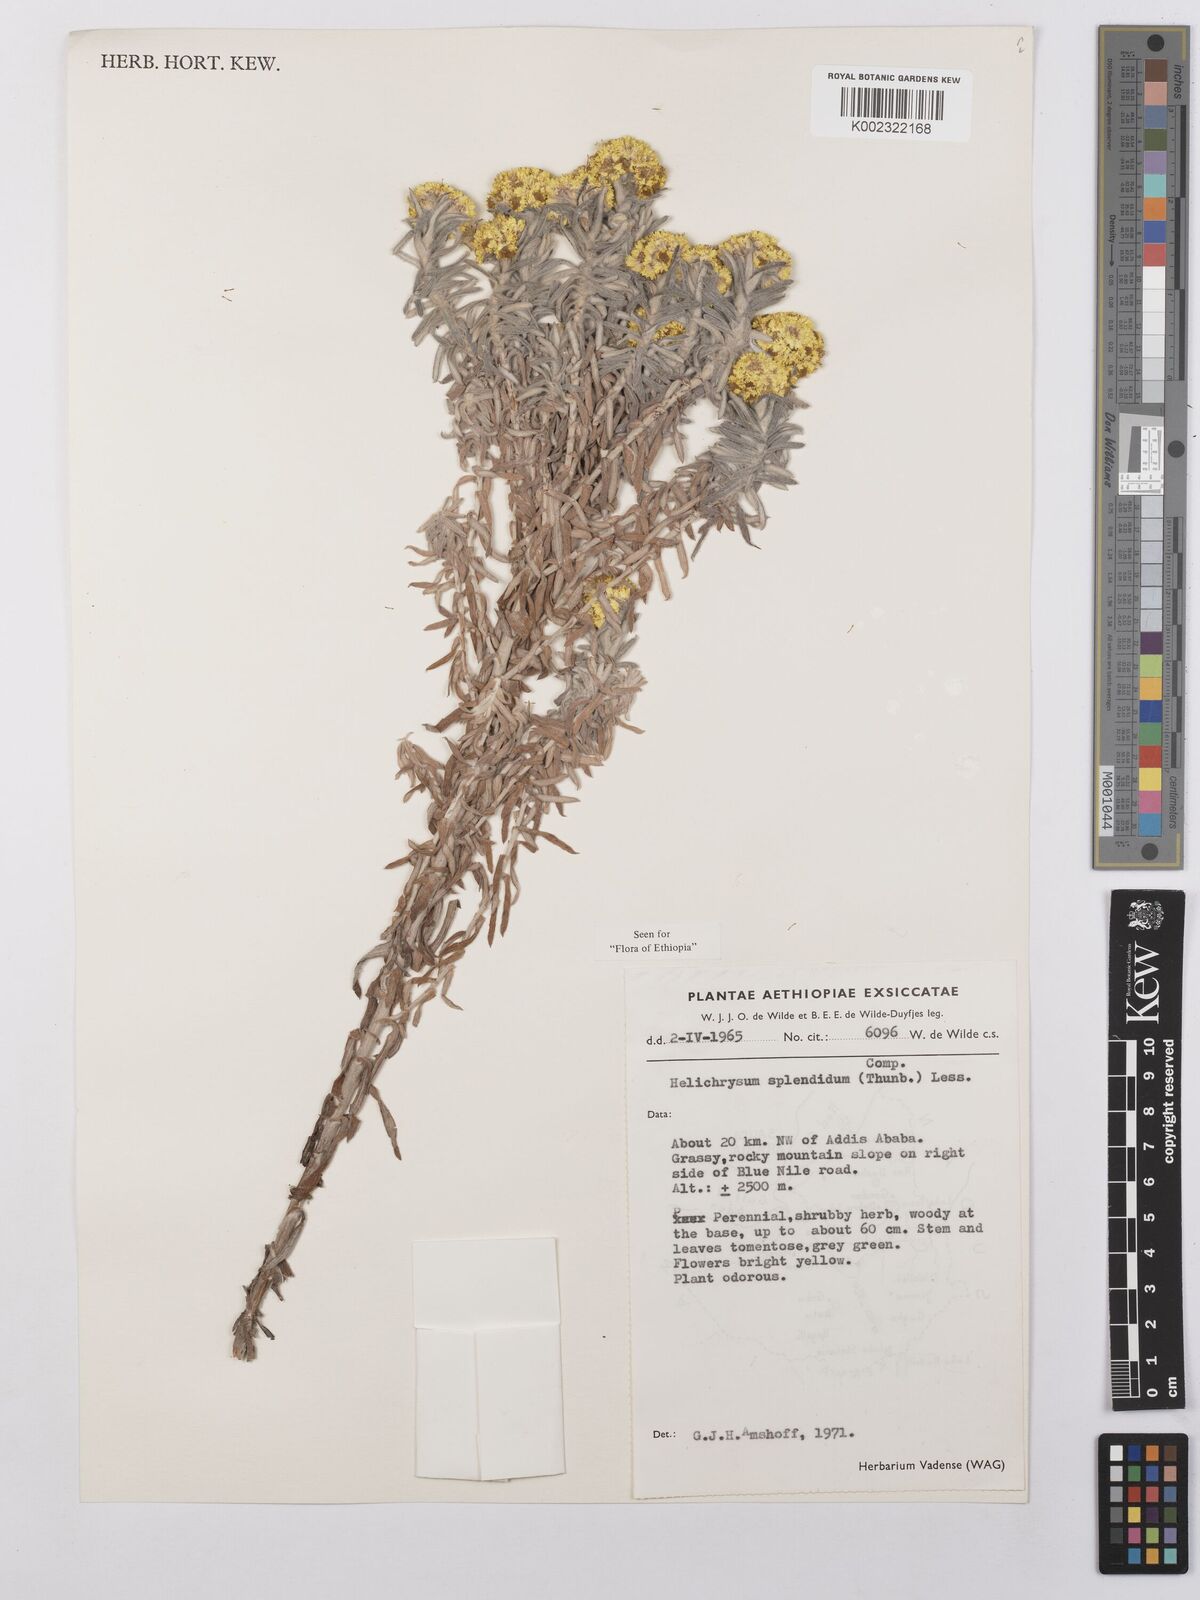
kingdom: Plantae
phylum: Tracheophyta
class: Magnoliopsida
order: Asterales
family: Asteraceae
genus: Helichrysum
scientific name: Helichrysum splendidum
